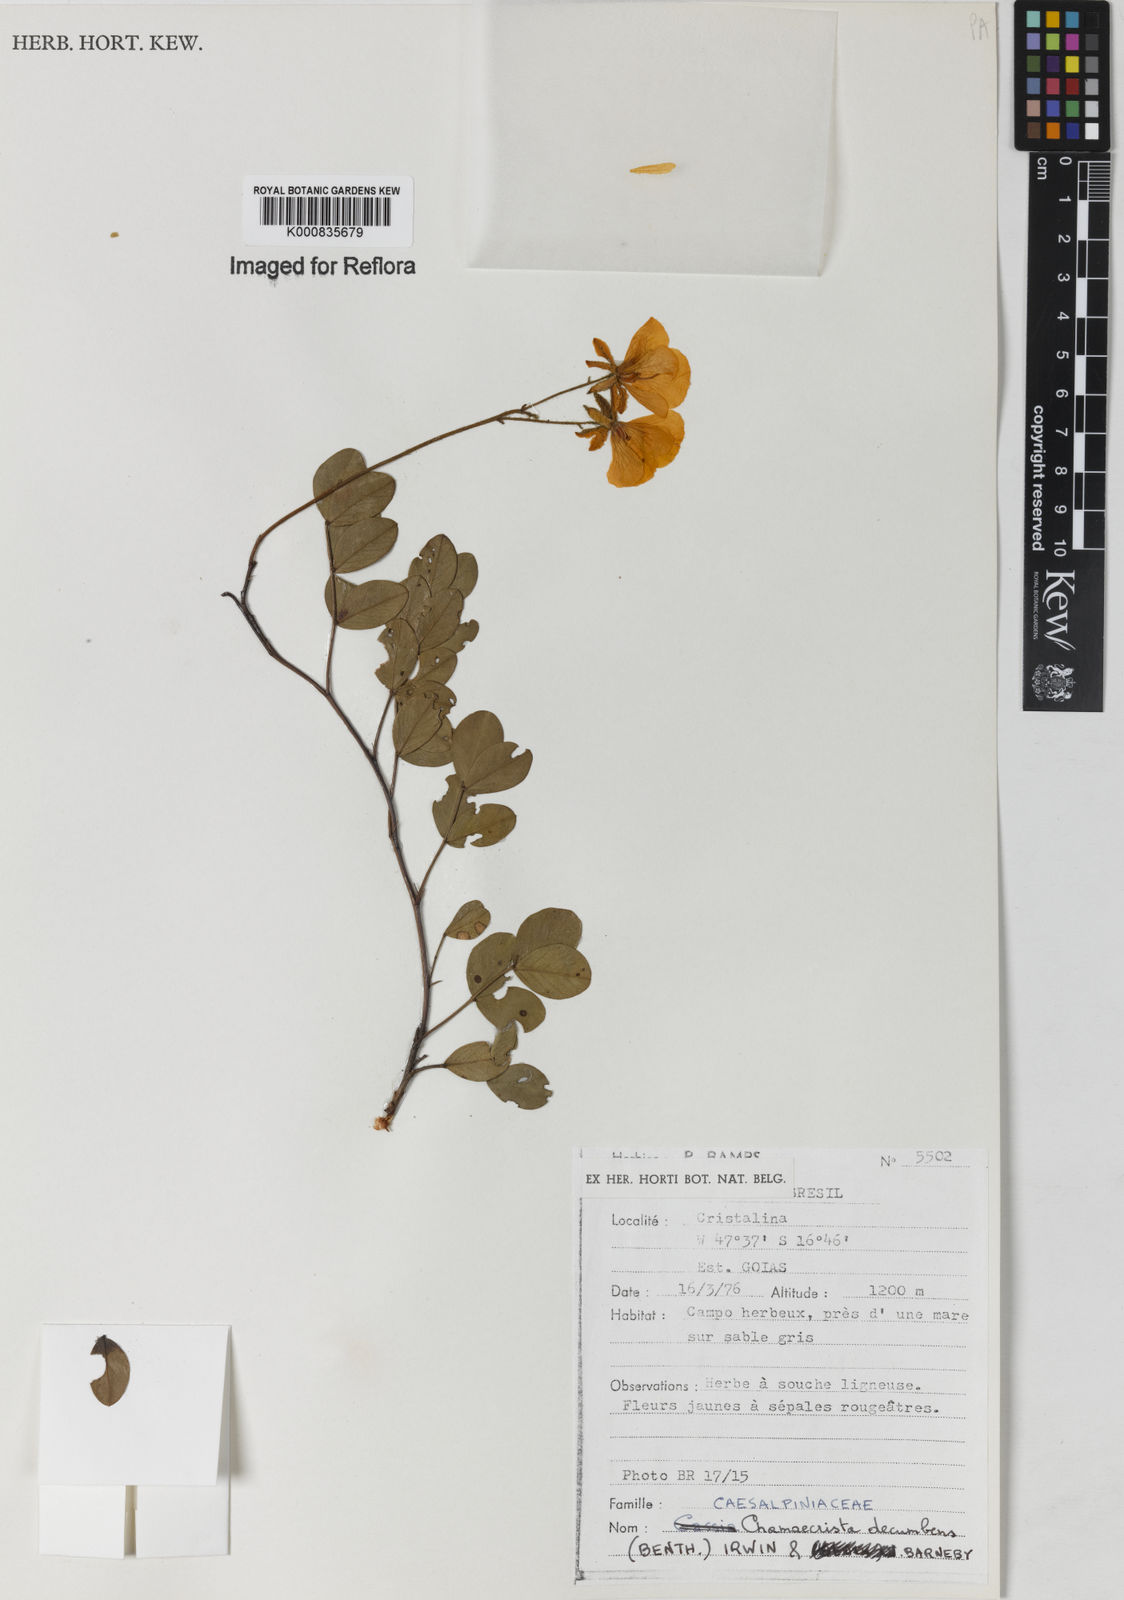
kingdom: Plantae
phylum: Tracheophyta
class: Magnoliopsida
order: Fabales
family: Fabaceae
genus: Chamaecrista
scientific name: Chamaecrista decumbens
